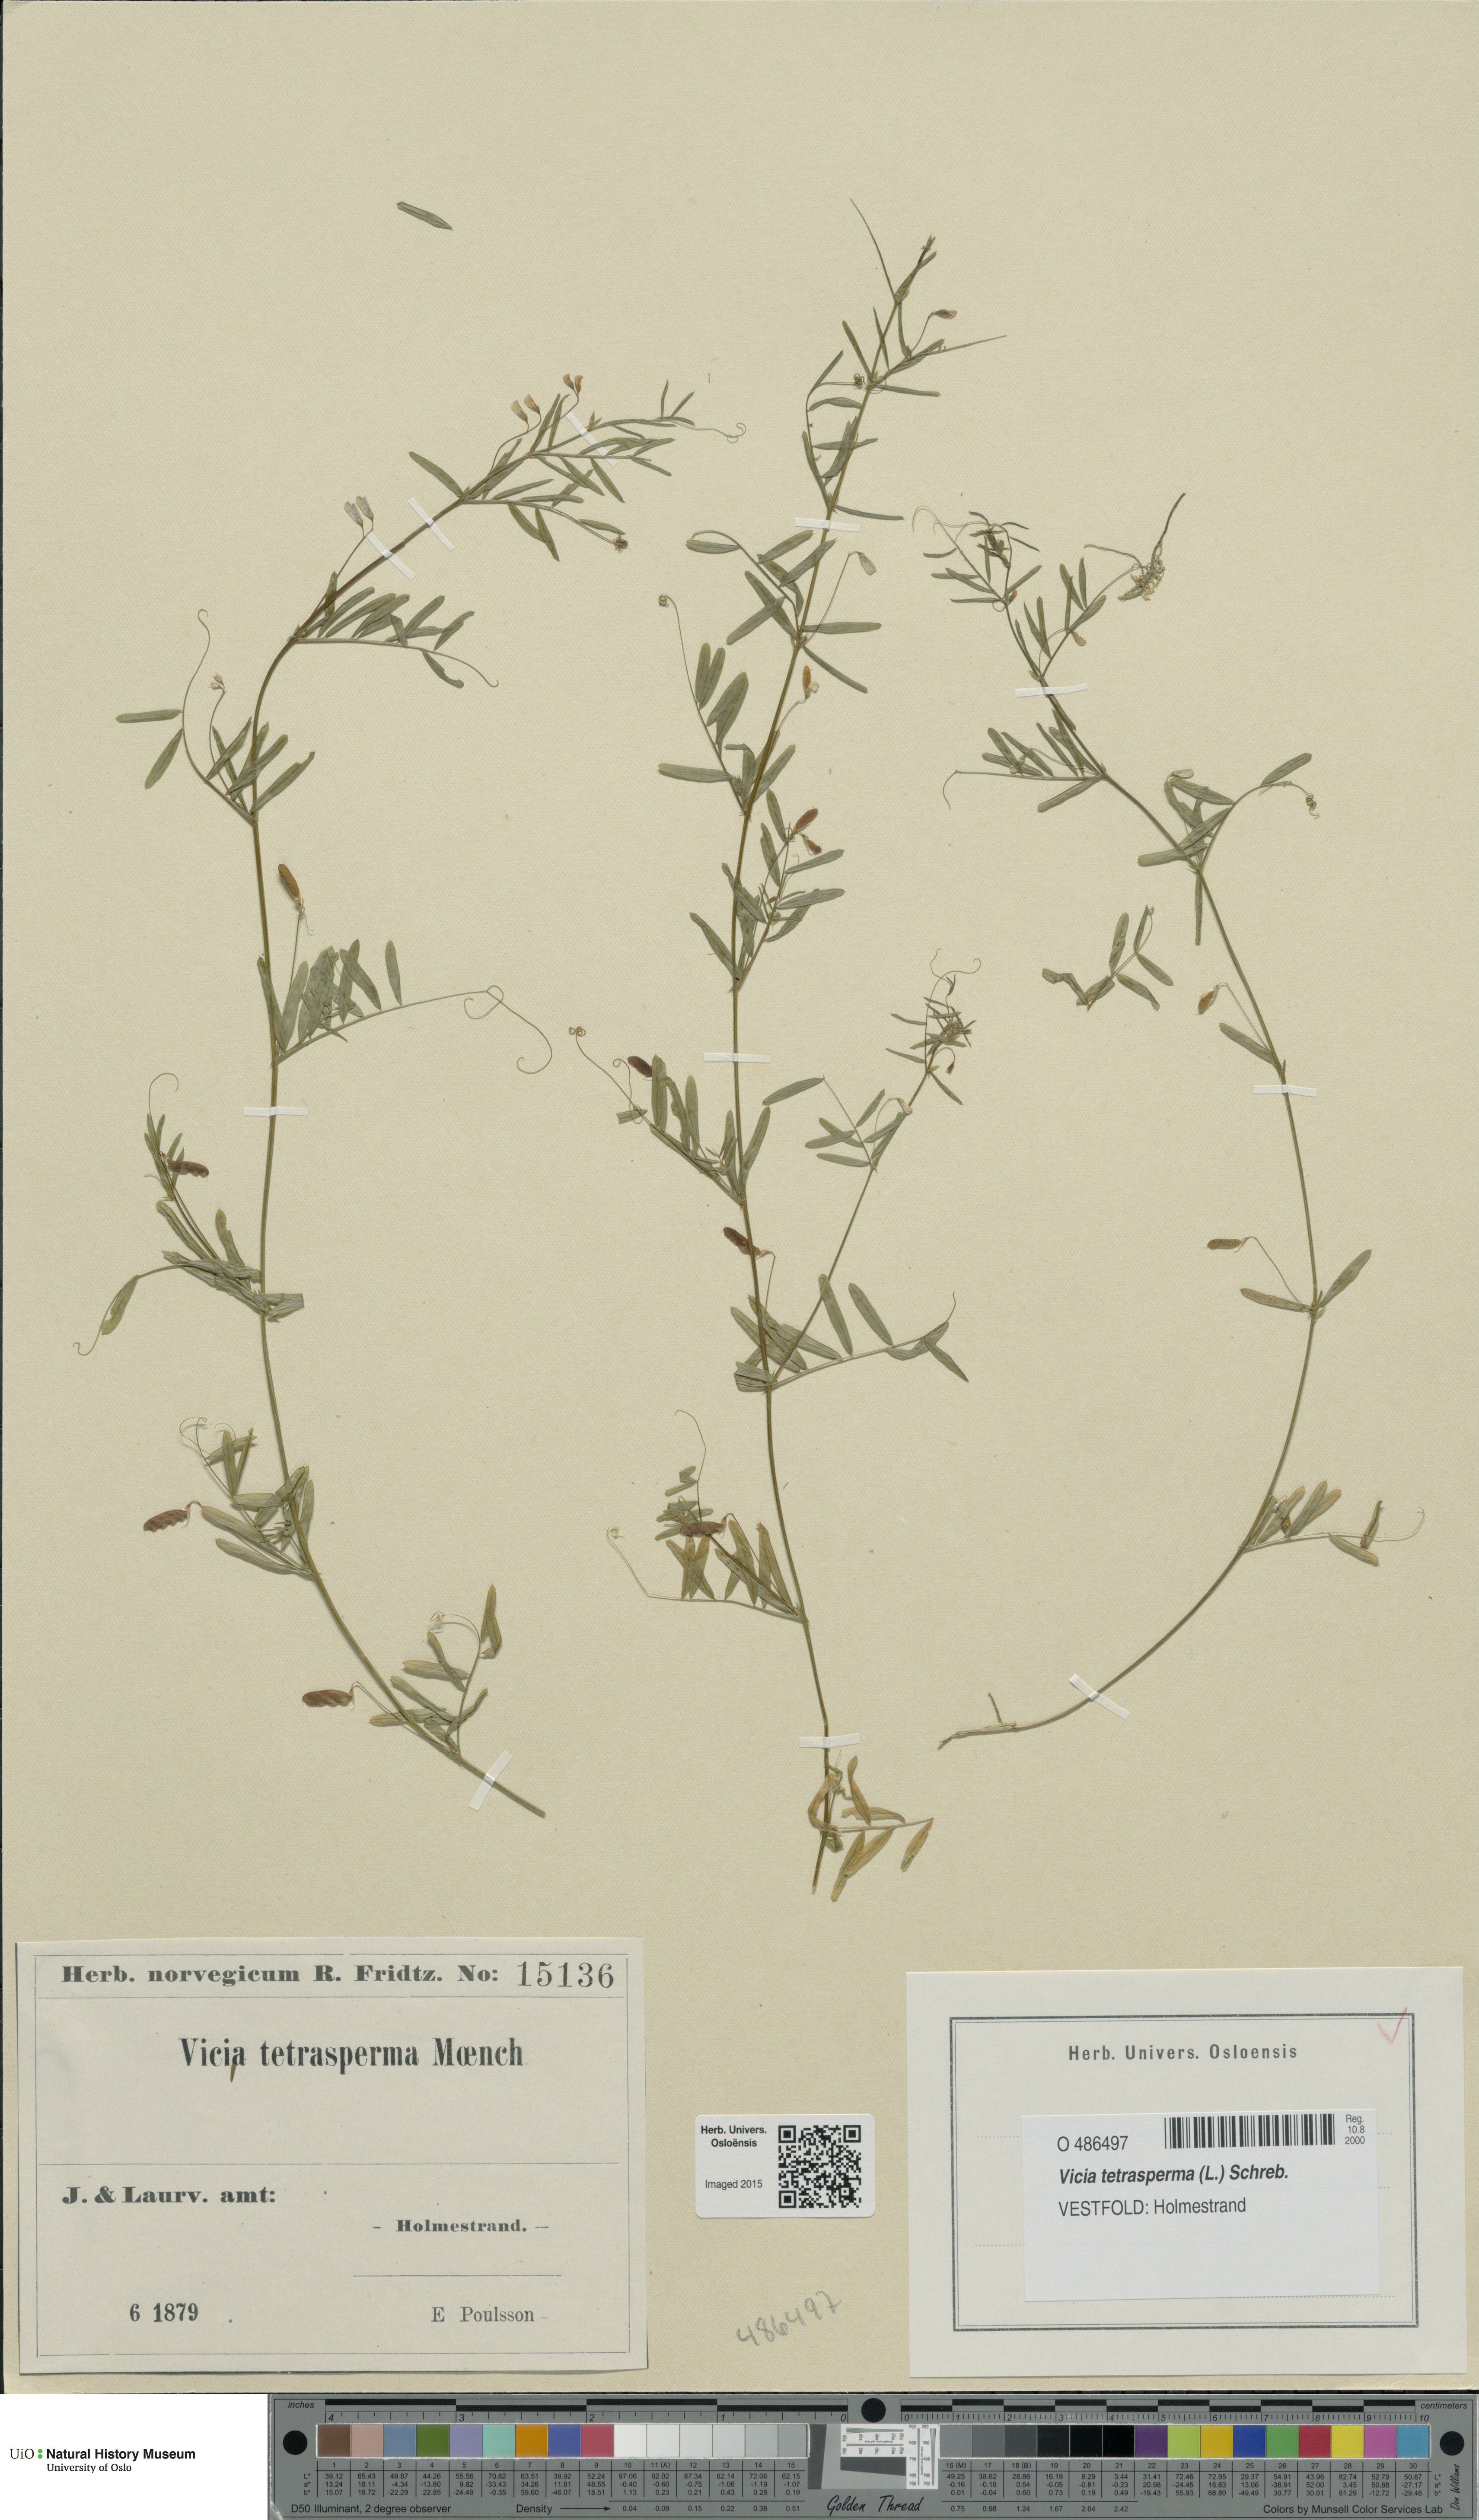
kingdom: Plantae
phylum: Tracheophyta
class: Magnoliopsida
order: Fabales
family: Fabaceae
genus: Vicia
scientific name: Vicia tetrasperma
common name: Smooth tare
